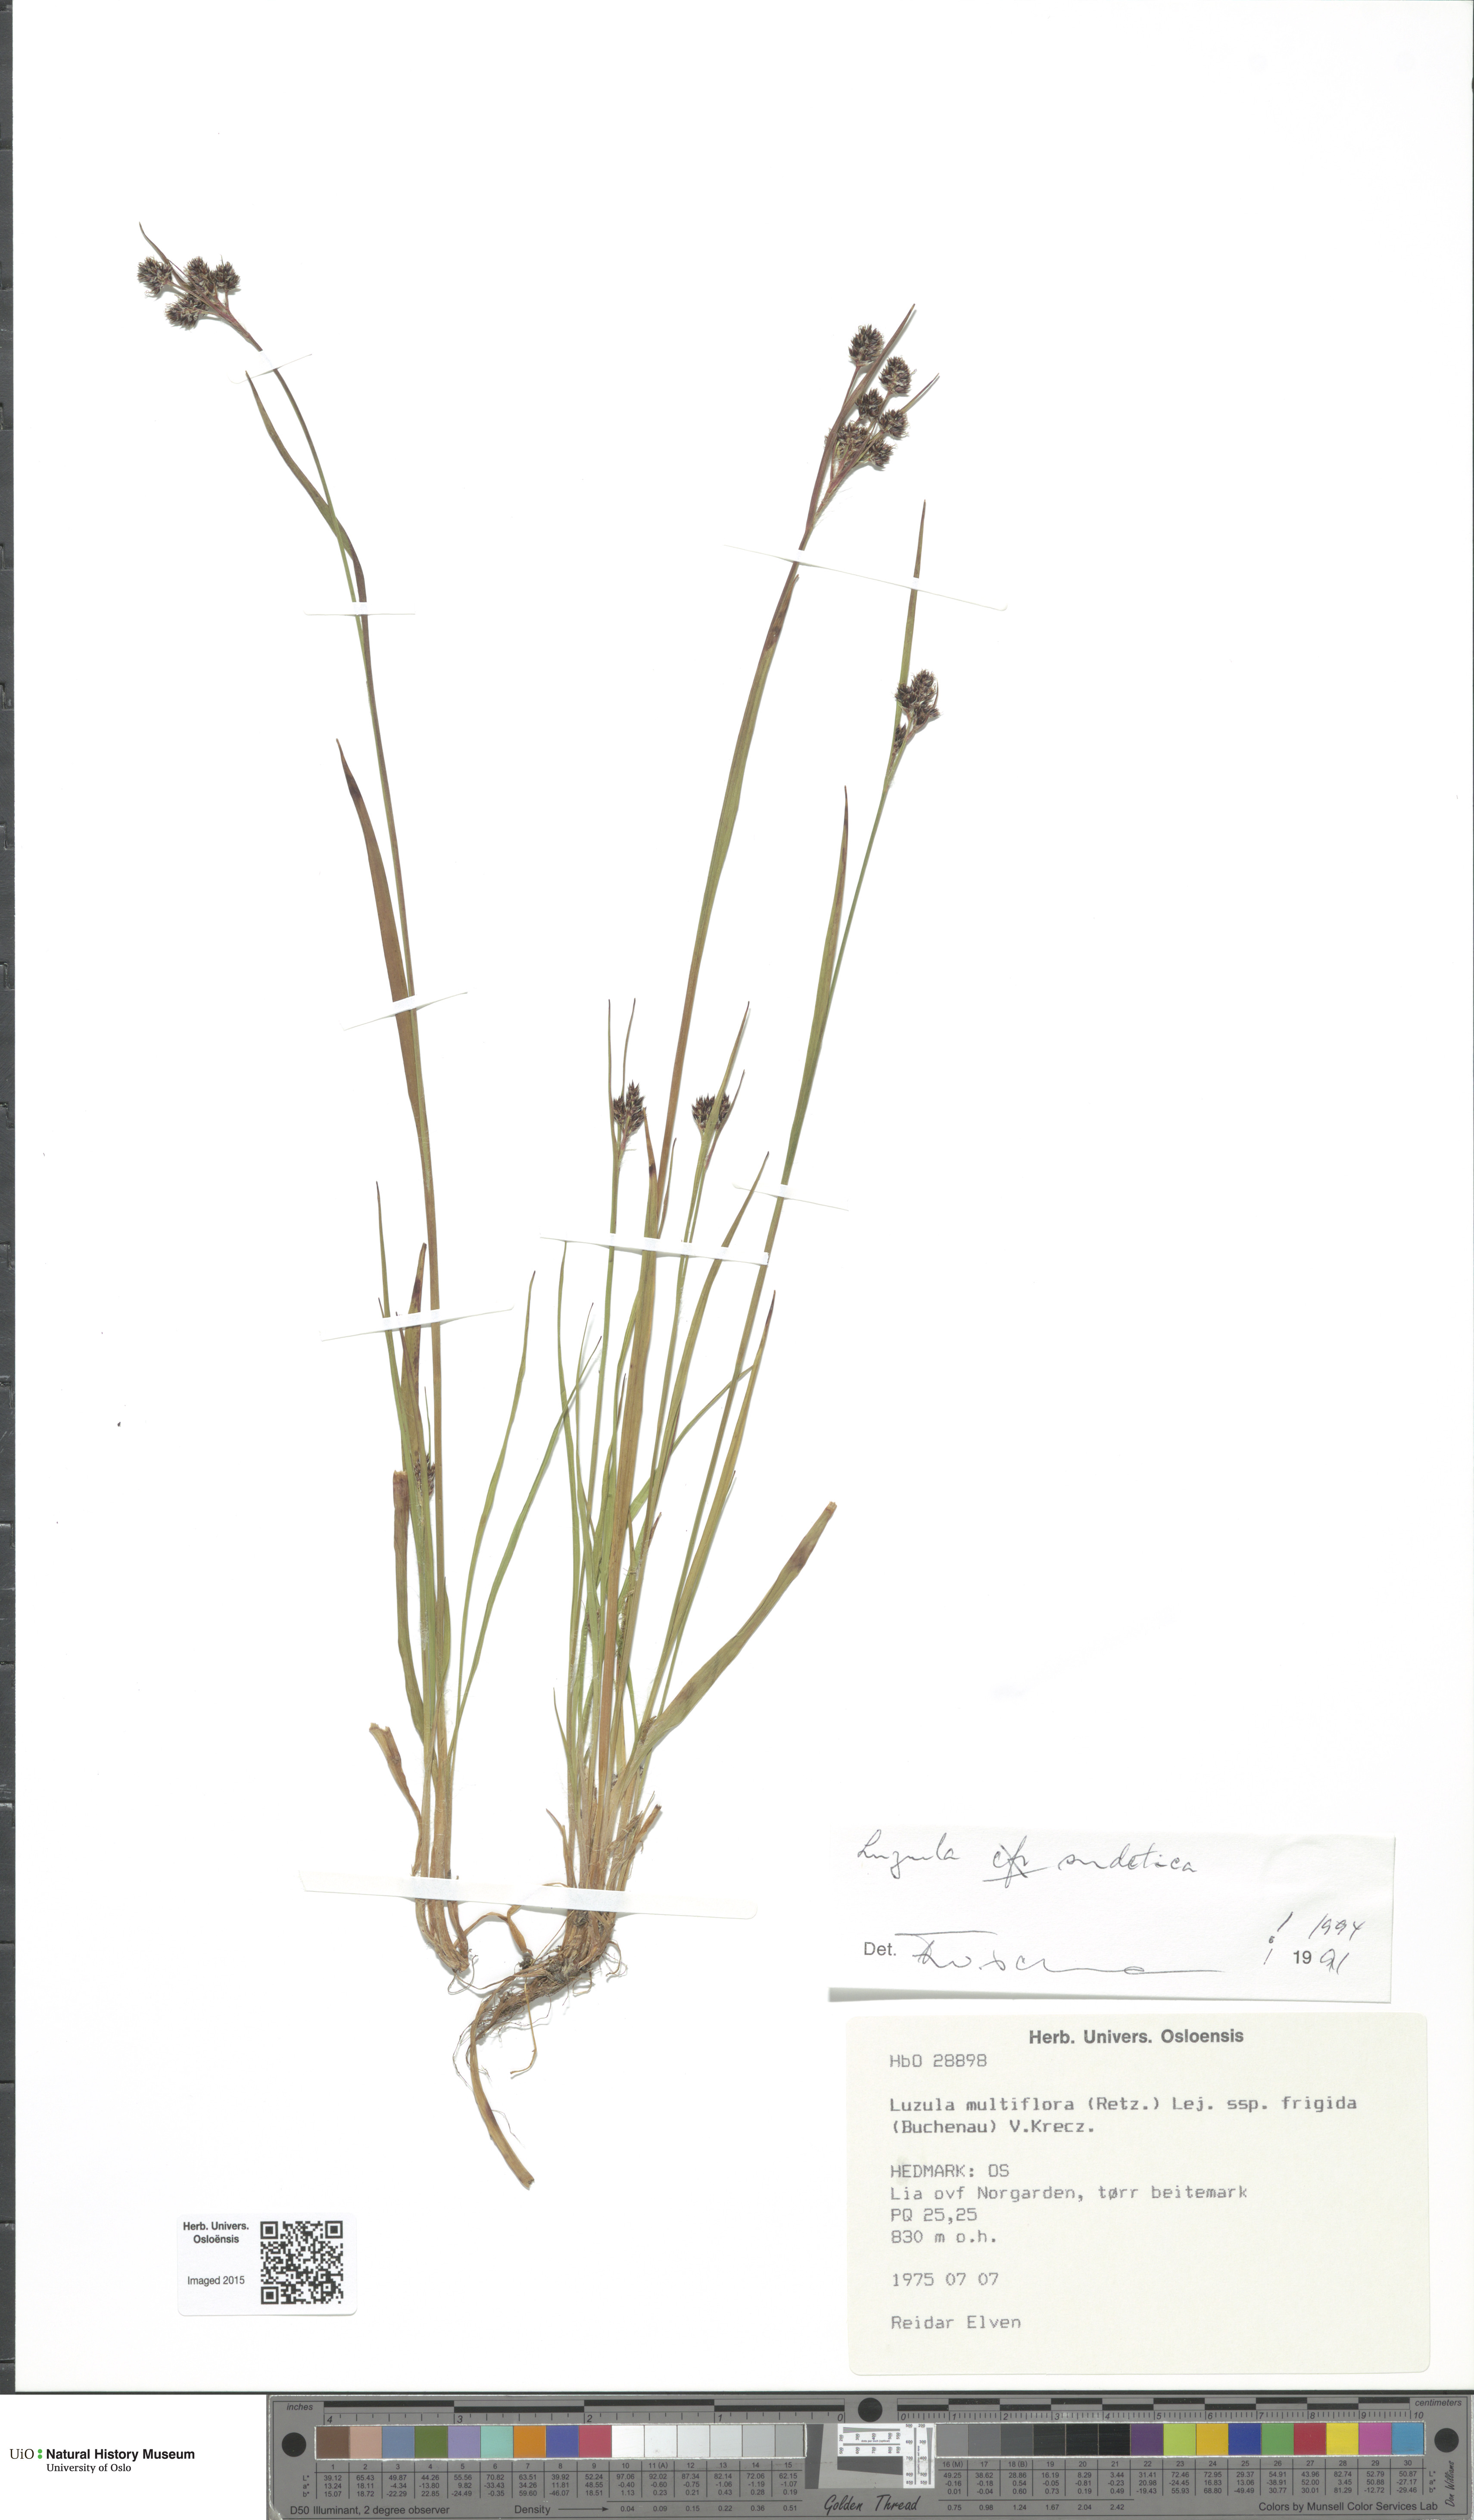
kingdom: Plantae
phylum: Tracheophyta
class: Liliopsida
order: Poales
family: Juncaceae
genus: Luzula
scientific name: Luzula sudetica
